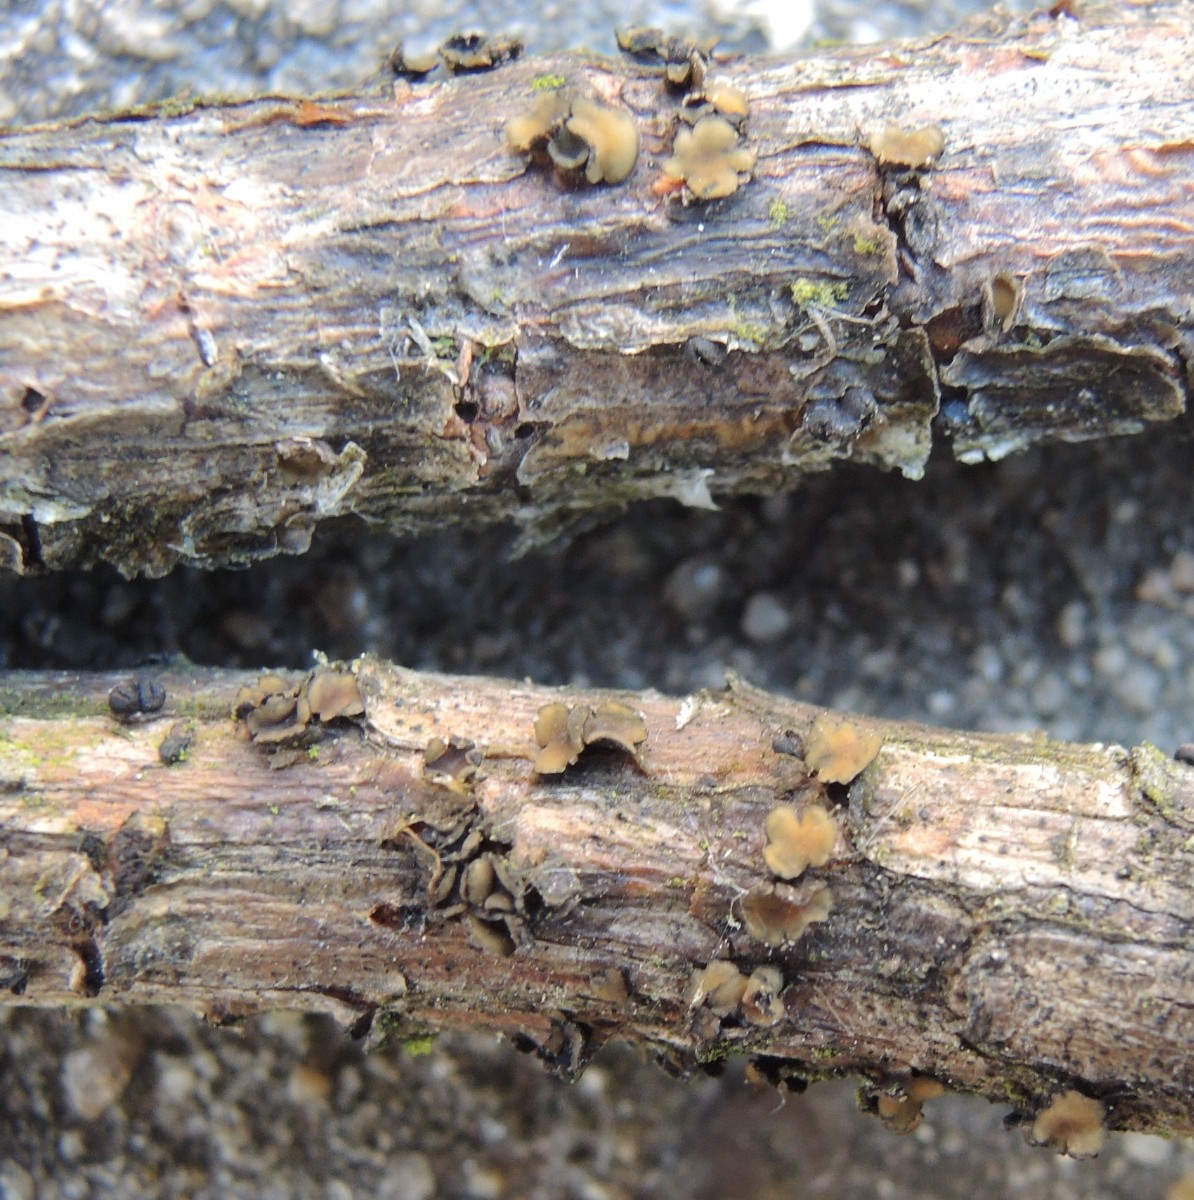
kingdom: Fungi
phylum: Ascomycota
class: Leotiomycetes
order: Helotiales
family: Cenangiaceae
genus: Cenangium
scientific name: Cenangium ferruginosum
